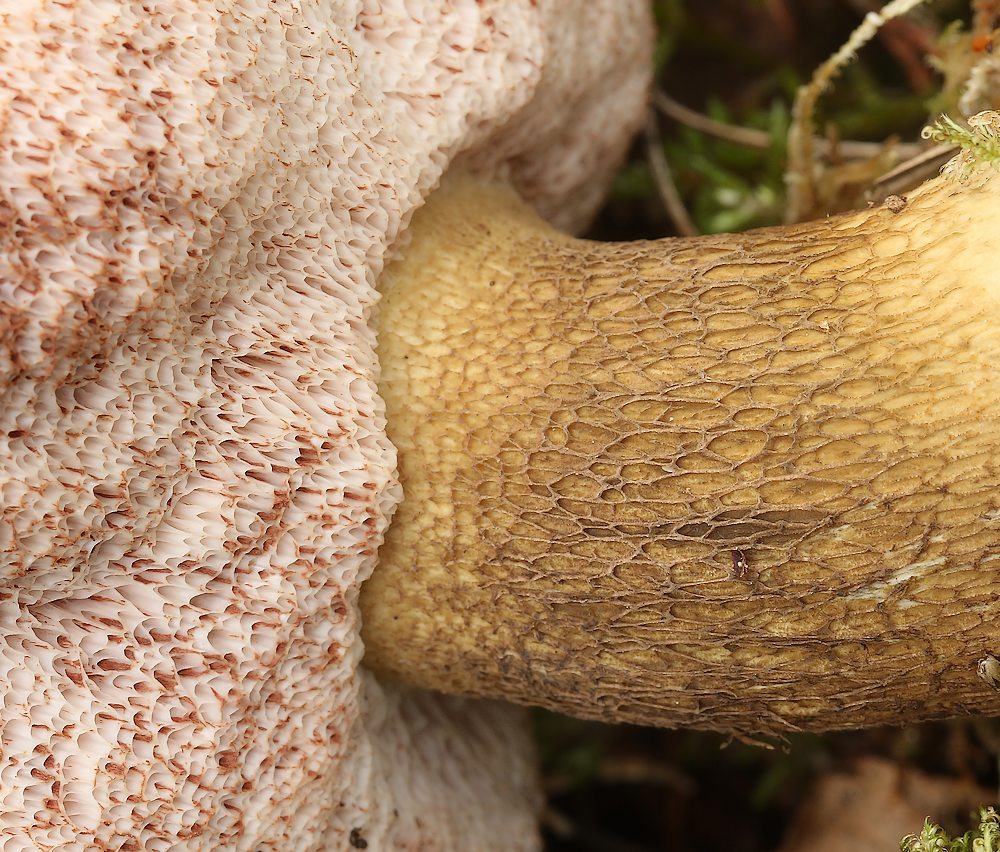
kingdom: Fungi
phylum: Basidiomycota
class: Agaricomycetes
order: Boletales
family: Boletaceae
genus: Tylopilus
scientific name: Tylopilus felleus
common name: galderørhat
